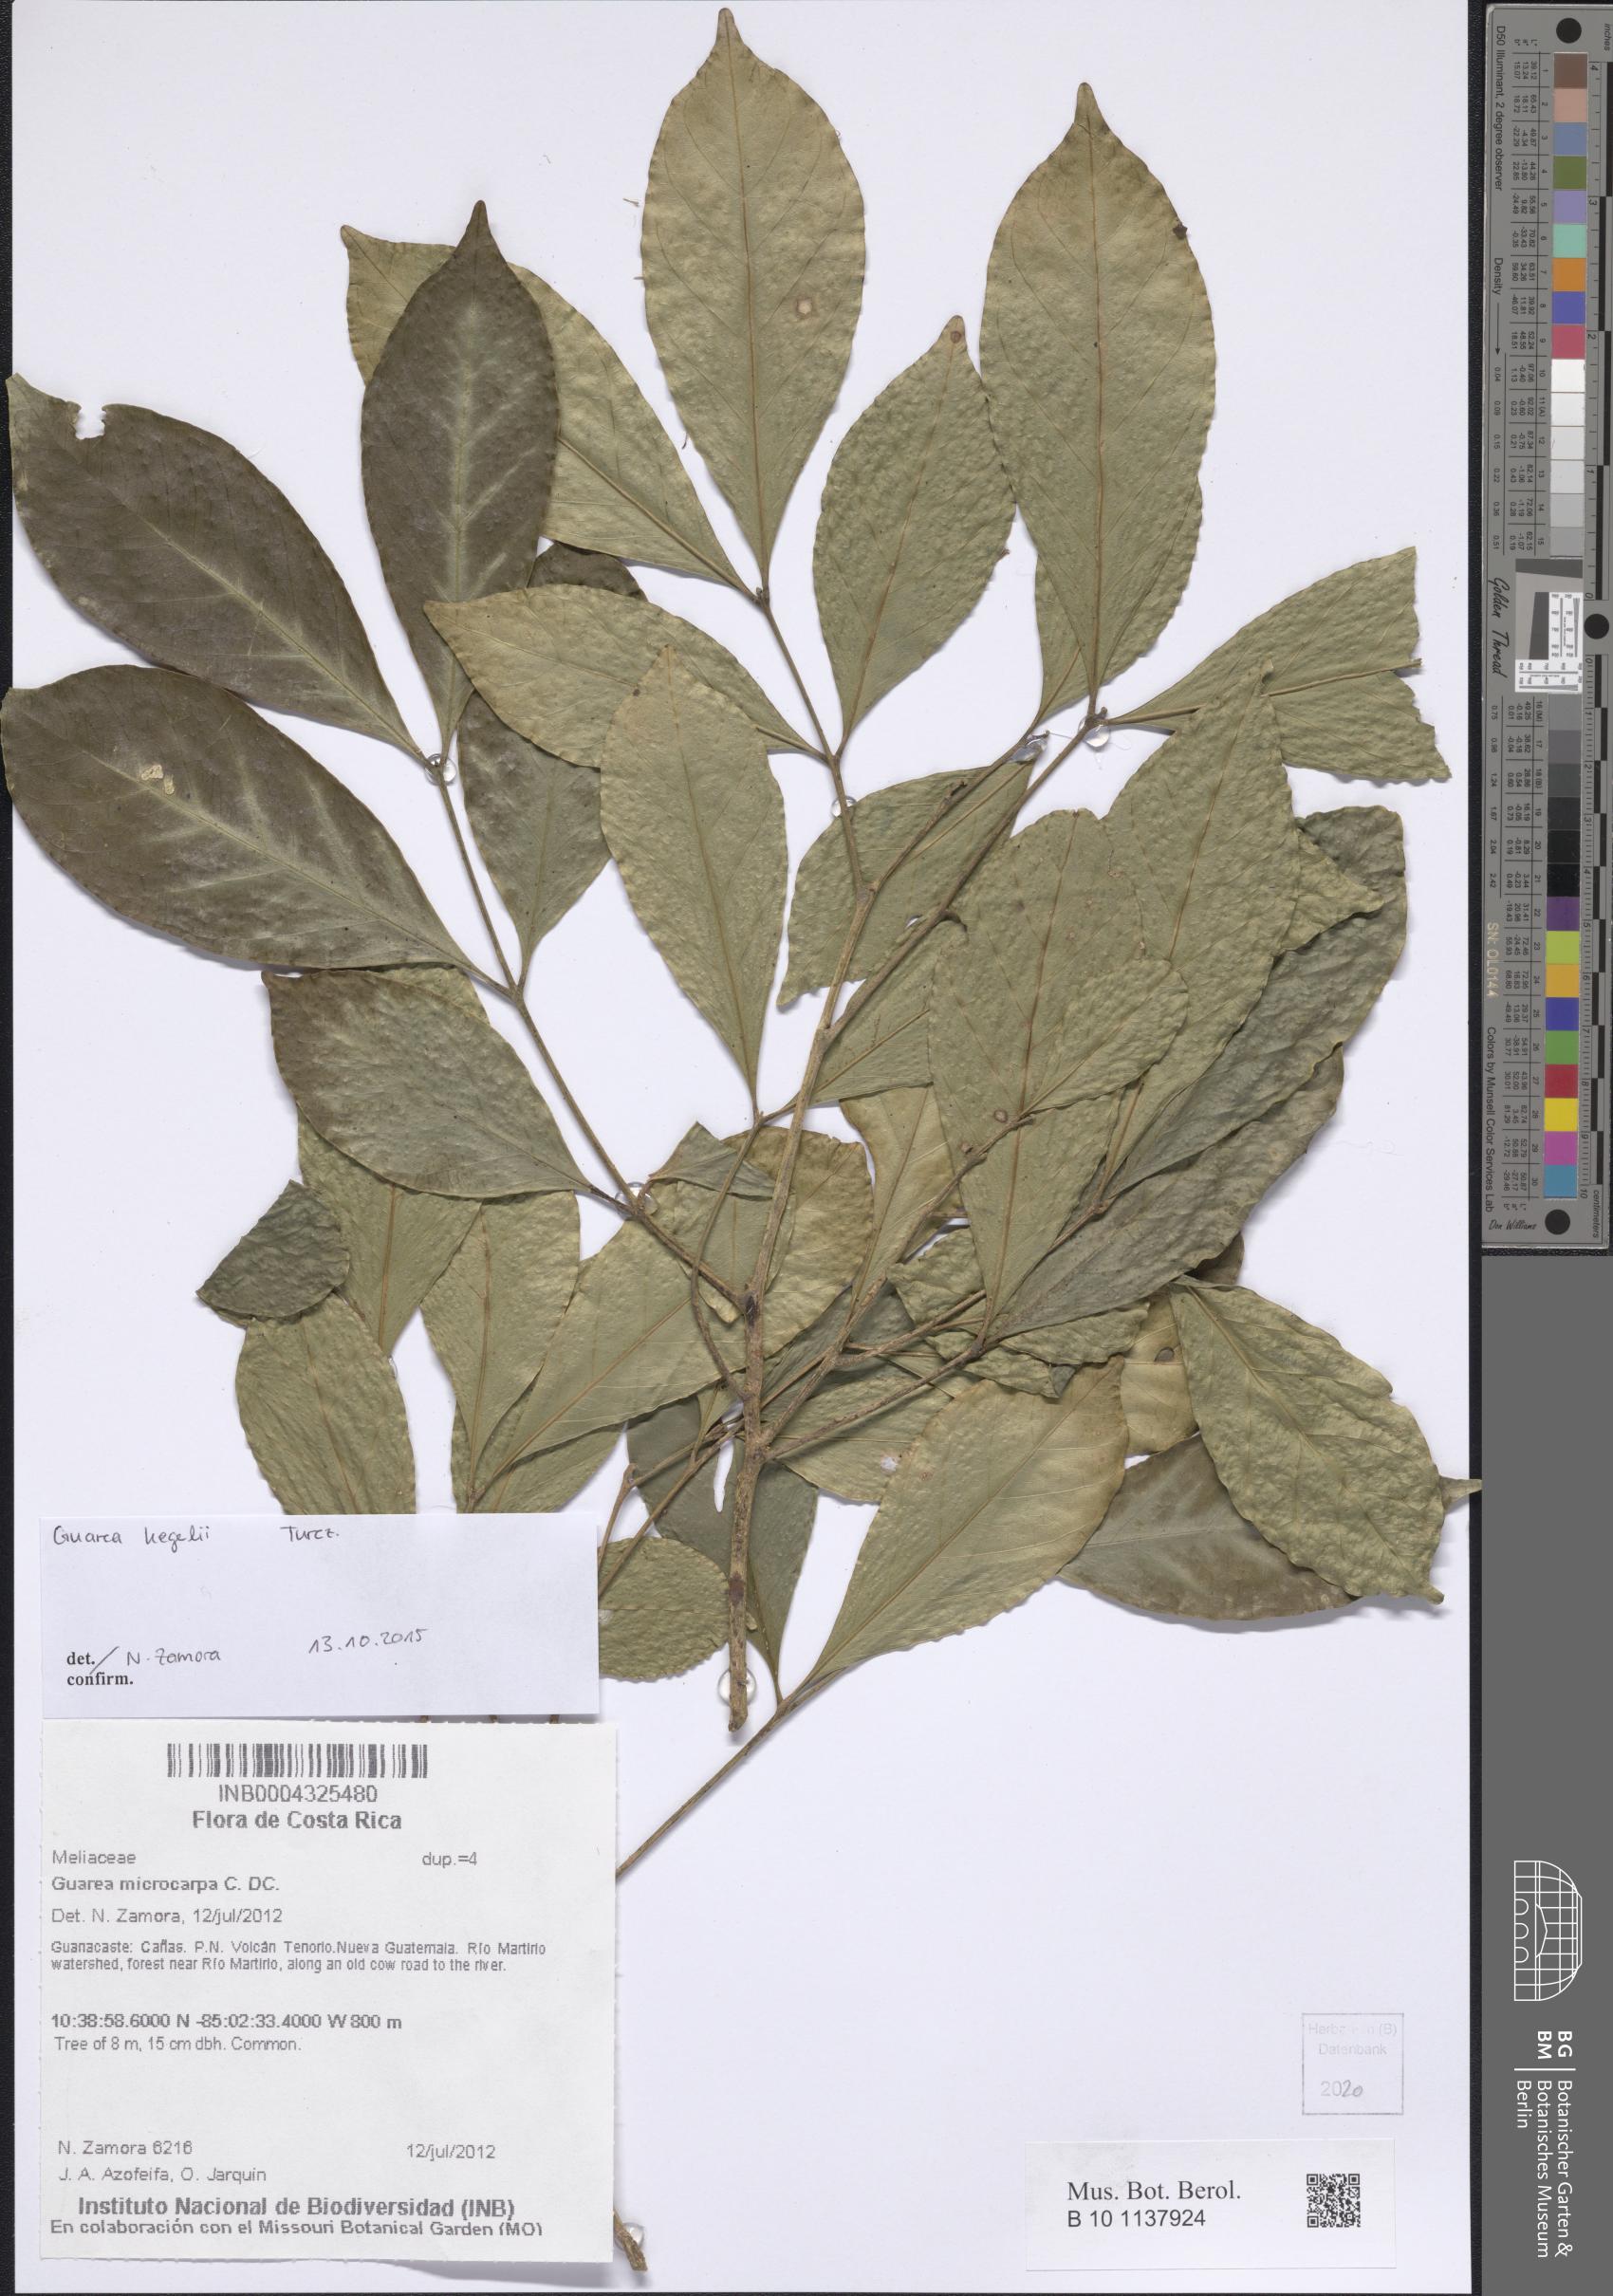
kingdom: Plantae
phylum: Tracheophyta
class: Magnoliopsida
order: Sapindales
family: Meliaceae
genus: Guarea
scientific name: Guarea glabra
